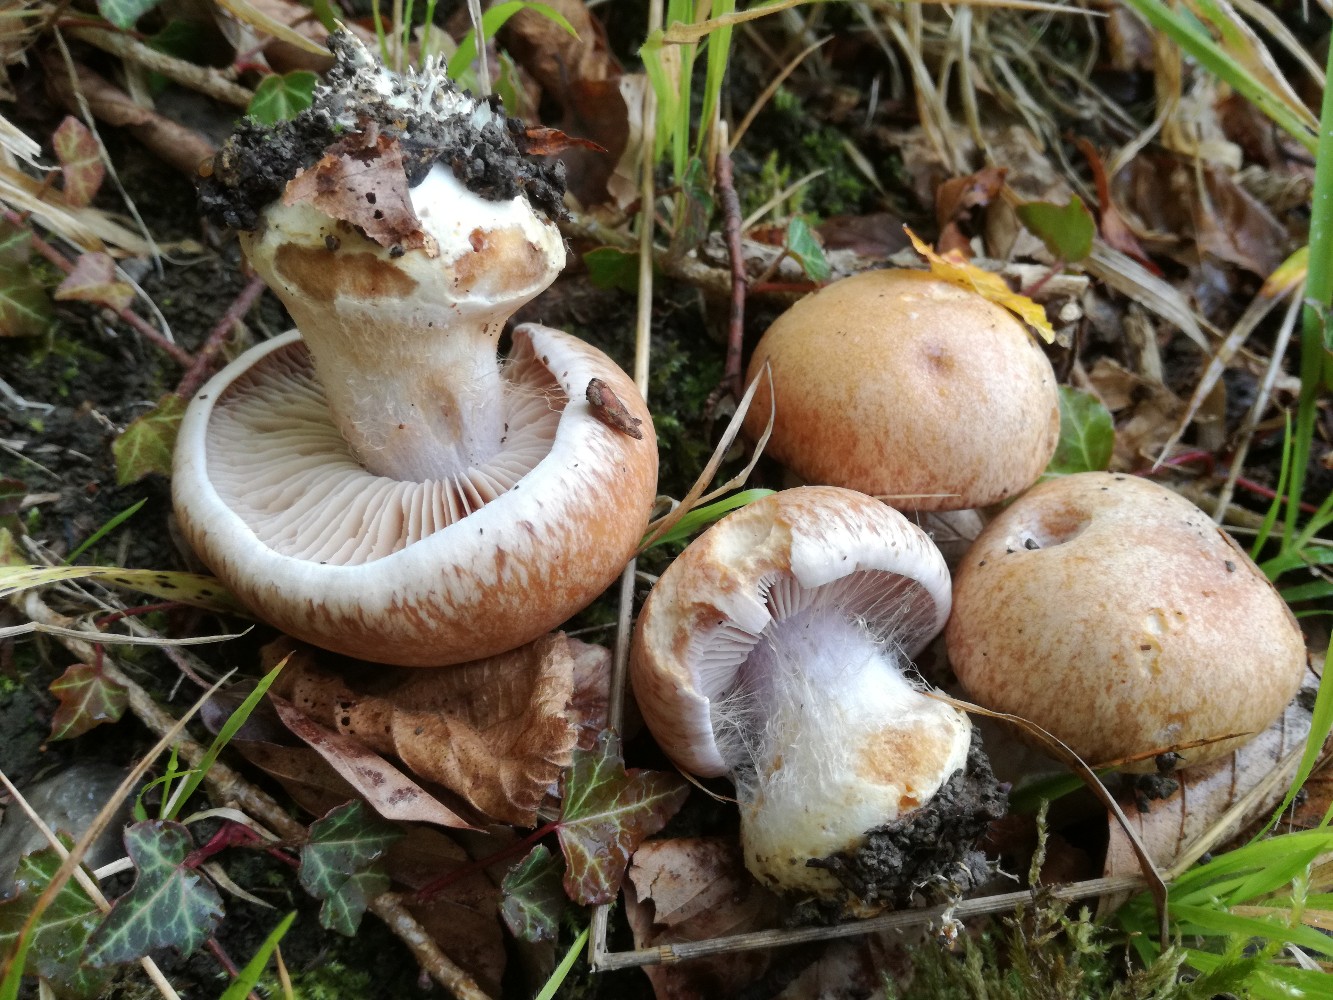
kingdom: Fungi
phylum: Basidiomycota
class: Agaricomycetes
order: Agaricales
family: Cortinariaceae
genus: Phlegmacium
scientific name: Phlegmacium coerulescentium
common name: gråbladet slørhat
